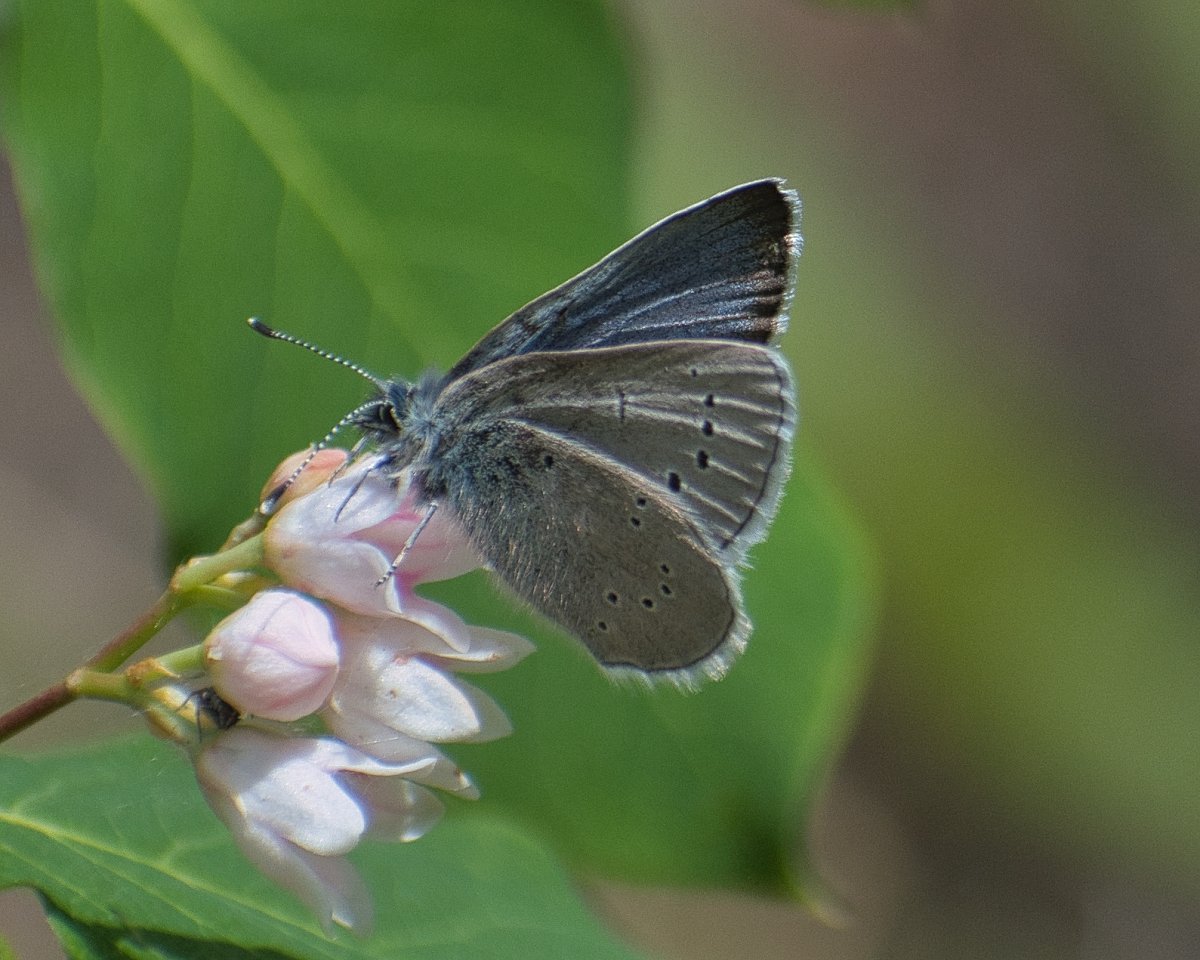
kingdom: Animalia
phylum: Arthropoda
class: Insecta
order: Lepidoptera
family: Lycaenidae
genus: Glaucopsyche
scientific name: Glaucopsyche lygdamus
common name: Silvery Blue
